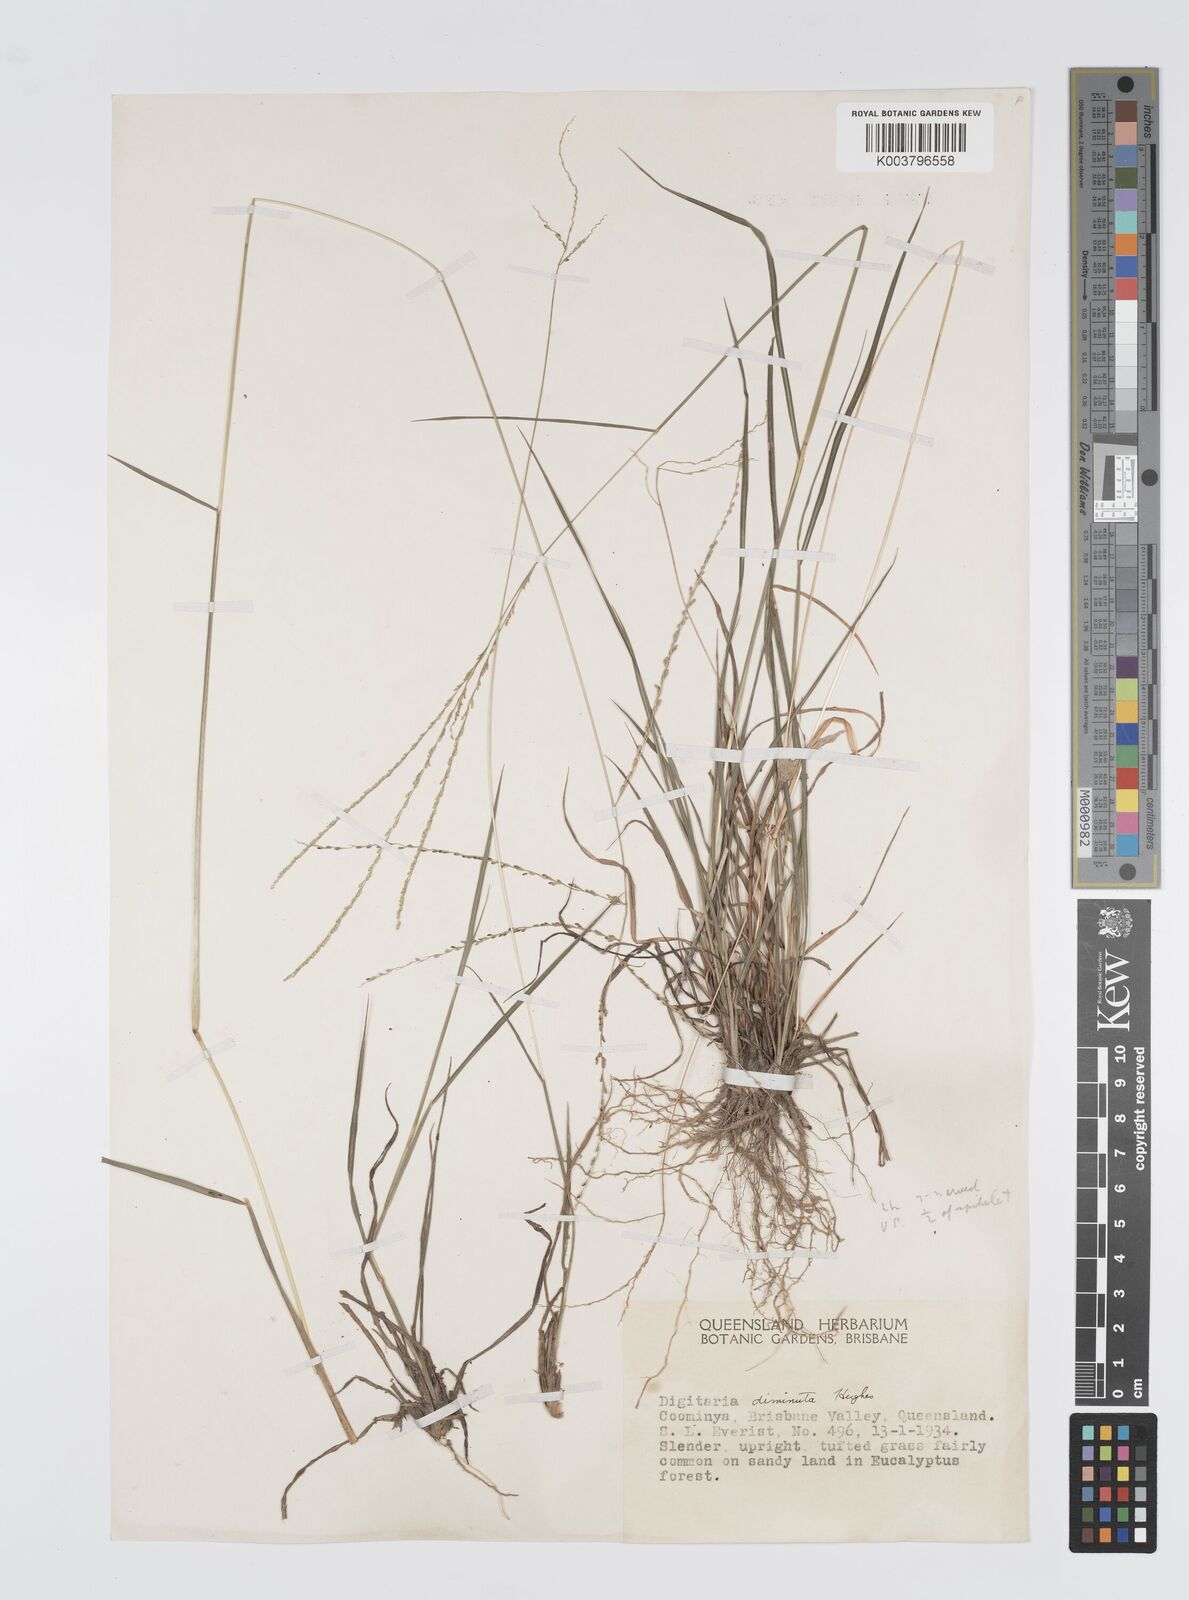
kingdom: Plantae
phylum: Tracheophyta
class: Liliopsida
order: Poales
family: Poaceae
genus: Digitaria
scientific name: Digitaria breviglumis
